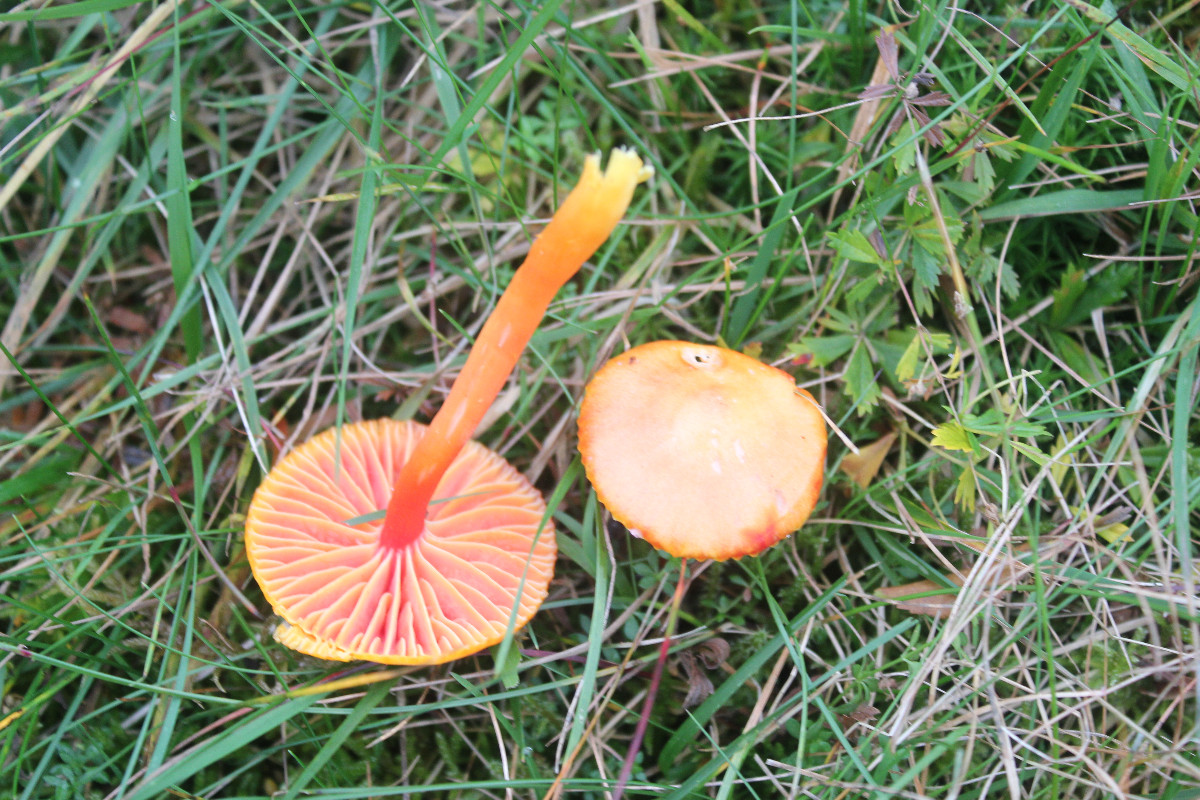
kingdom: Fungi
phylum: Basidiomycota
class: Agaricomycetes
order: Agaricales
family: Hygrophoraceae
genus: Hygrocybe
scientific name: Hygrocybe coccinea
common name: cinnober-vokshat
